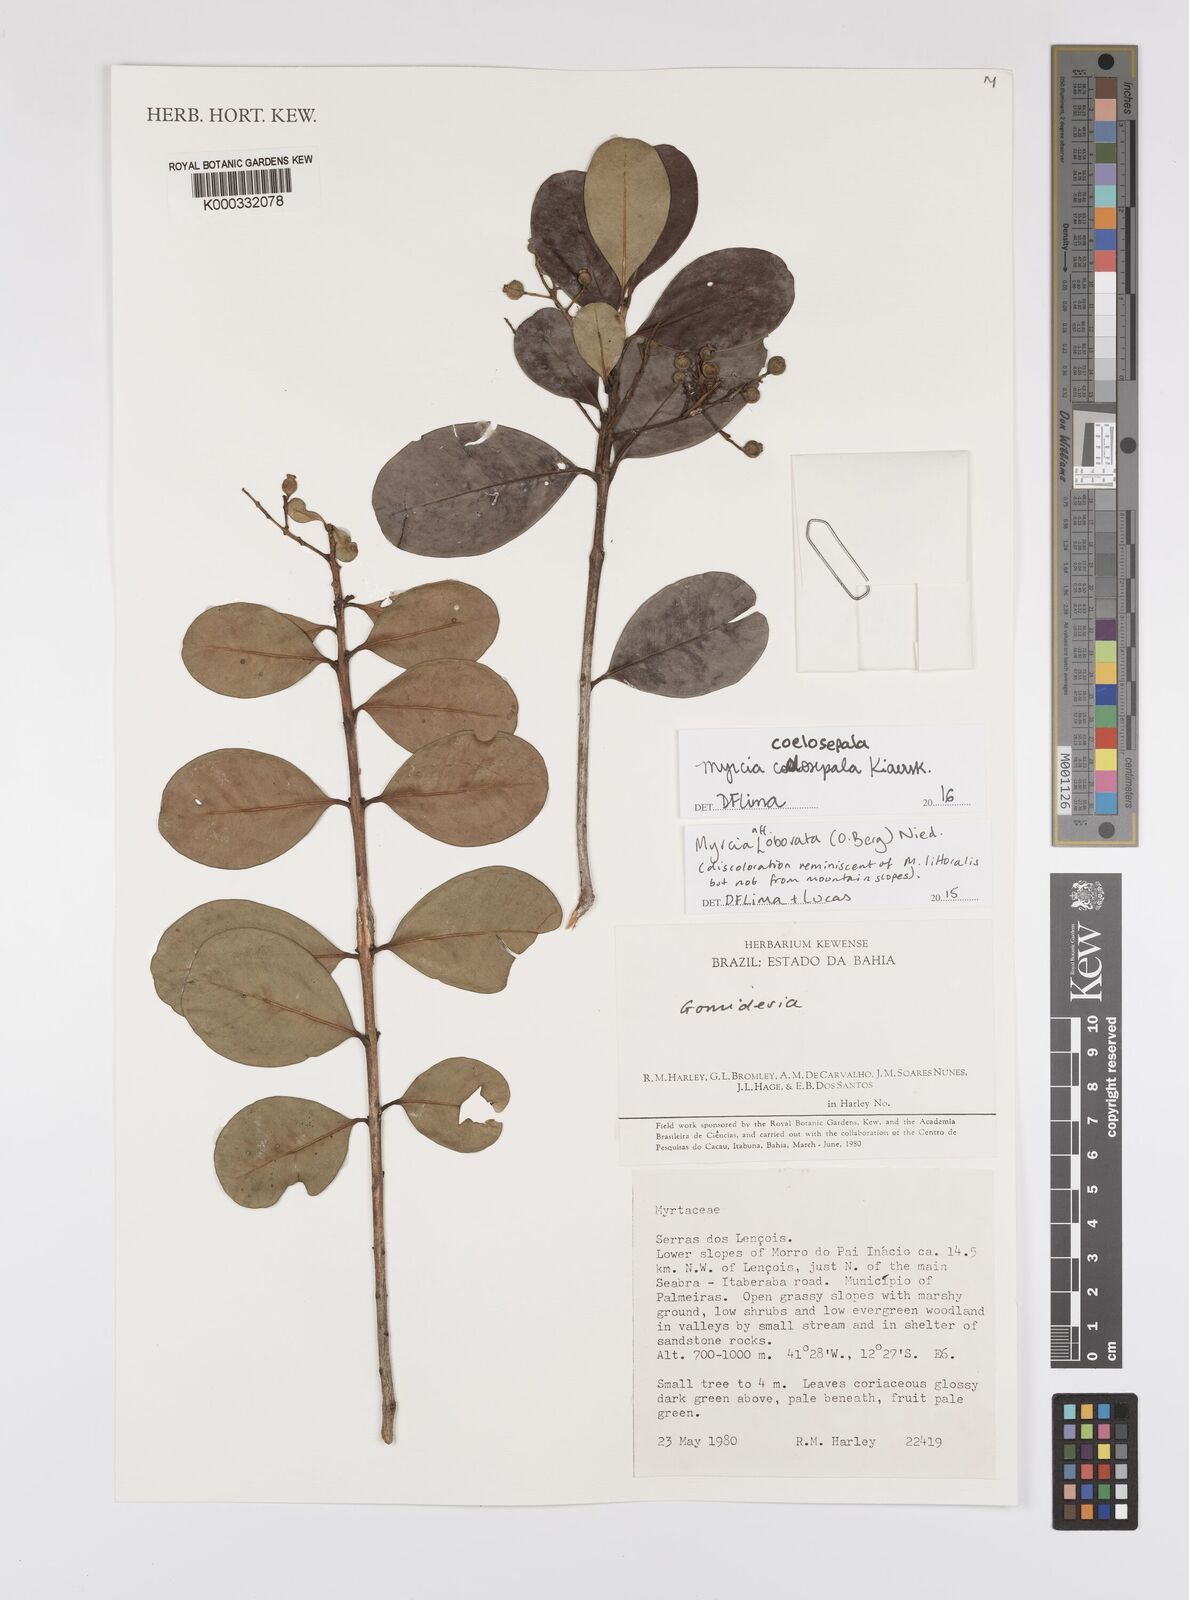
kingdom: Plantae
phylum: Tracheophyta
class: Magnoliopsida
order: Myrtales
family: Myrtaceae
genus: Myrcia
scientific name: Myrcia
